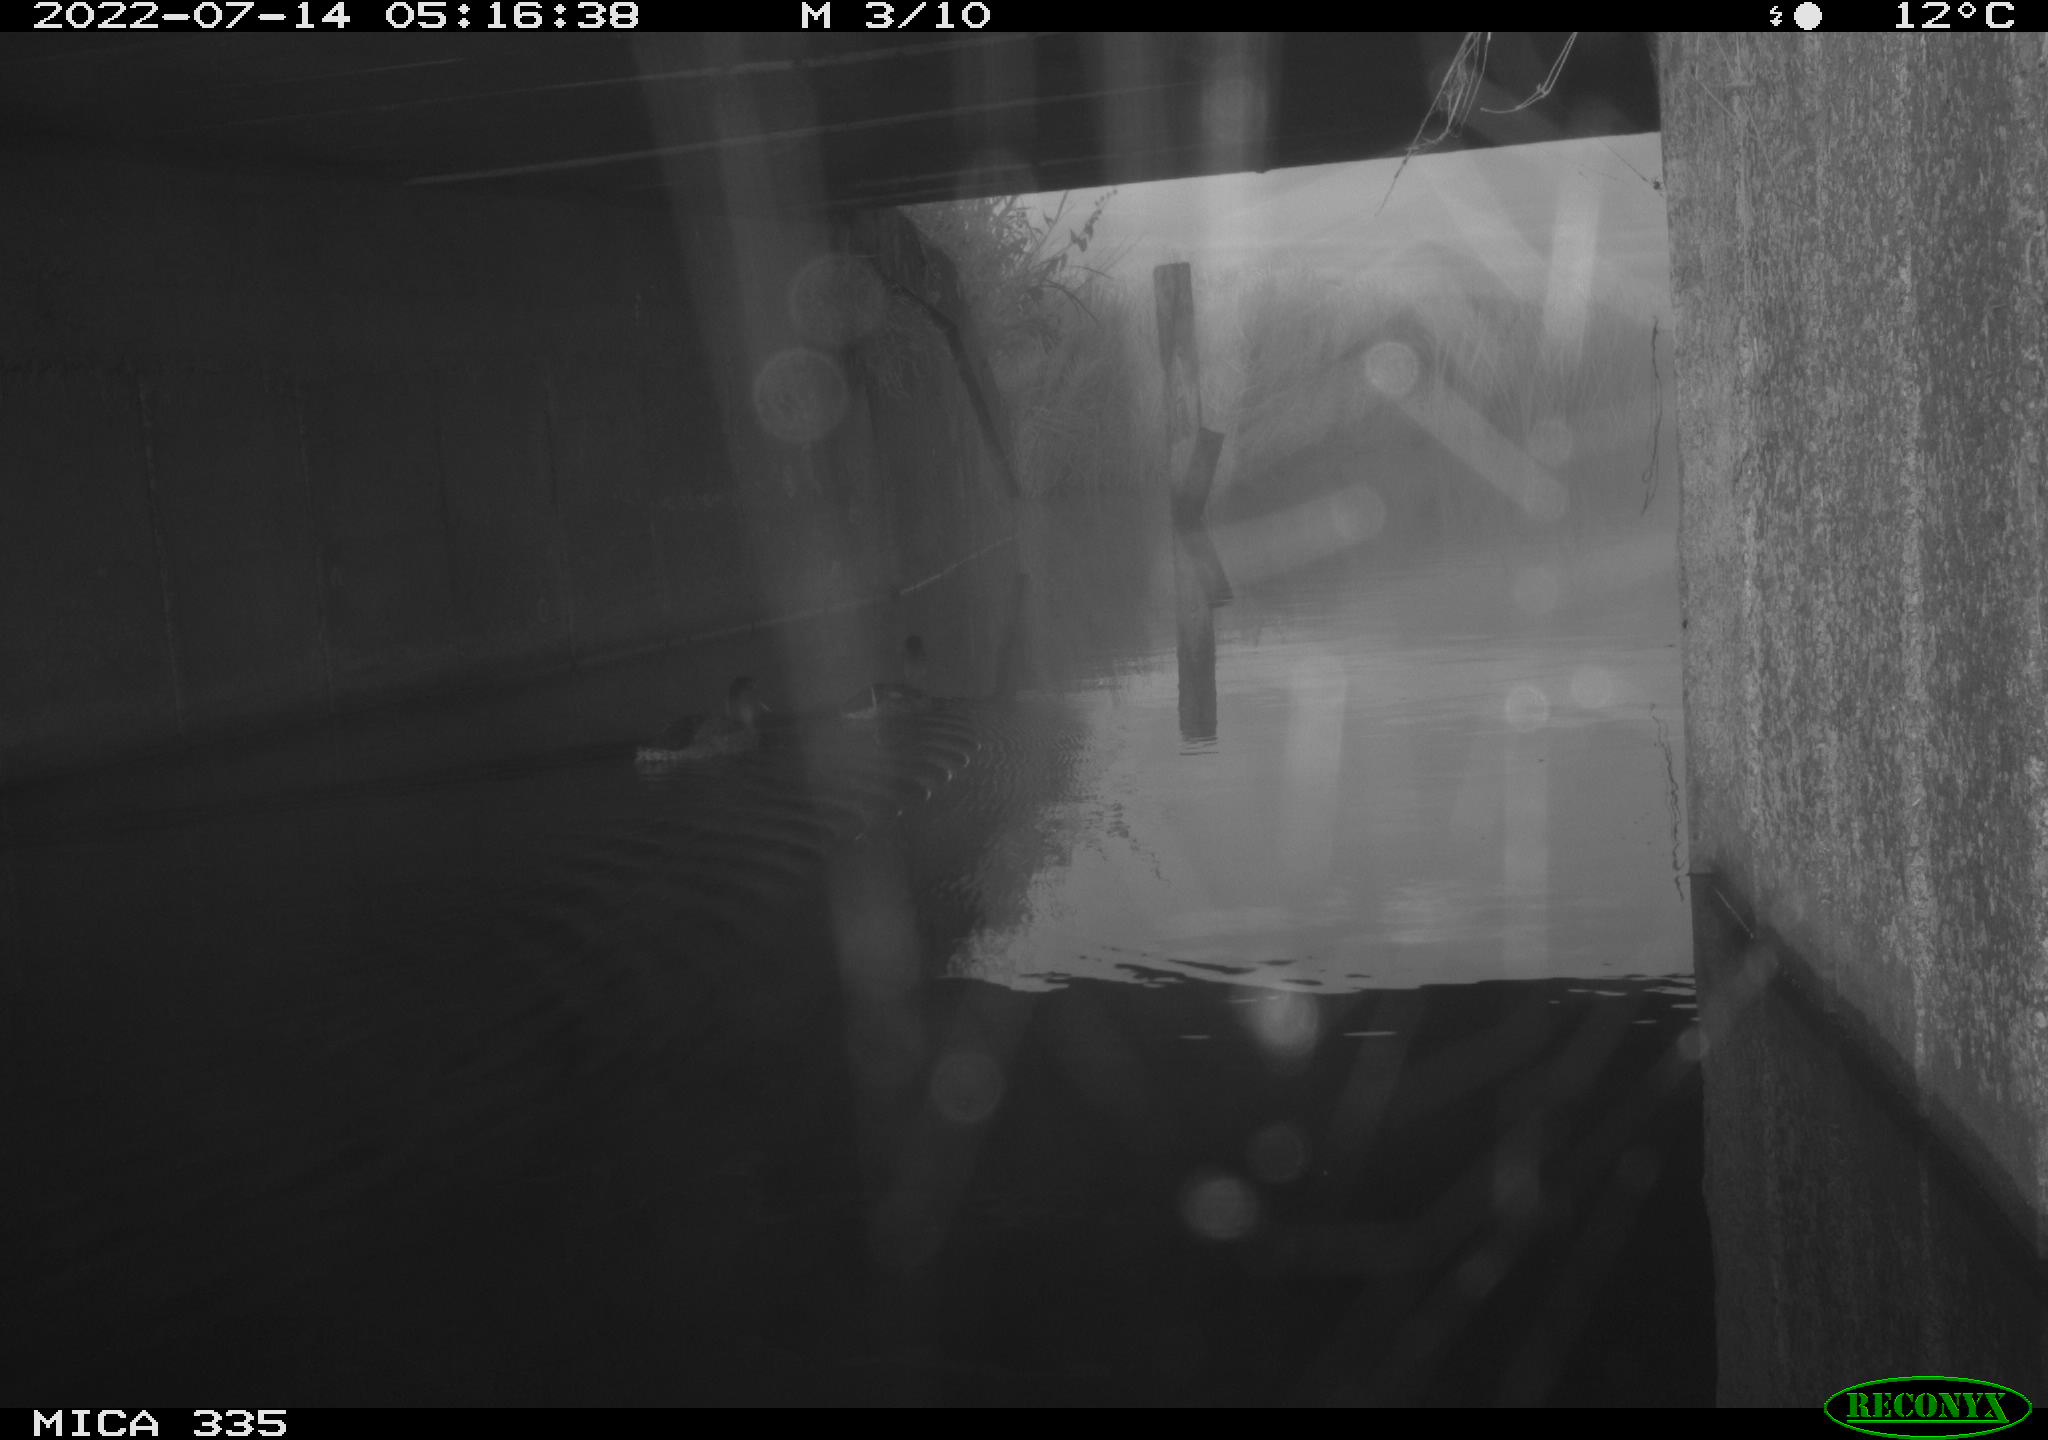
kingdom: Animalia
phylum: Chordata
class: Aves
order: Anseriformes
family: Anatidae
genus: Anas
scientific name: Anas platyrhynchos
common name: Mallard
